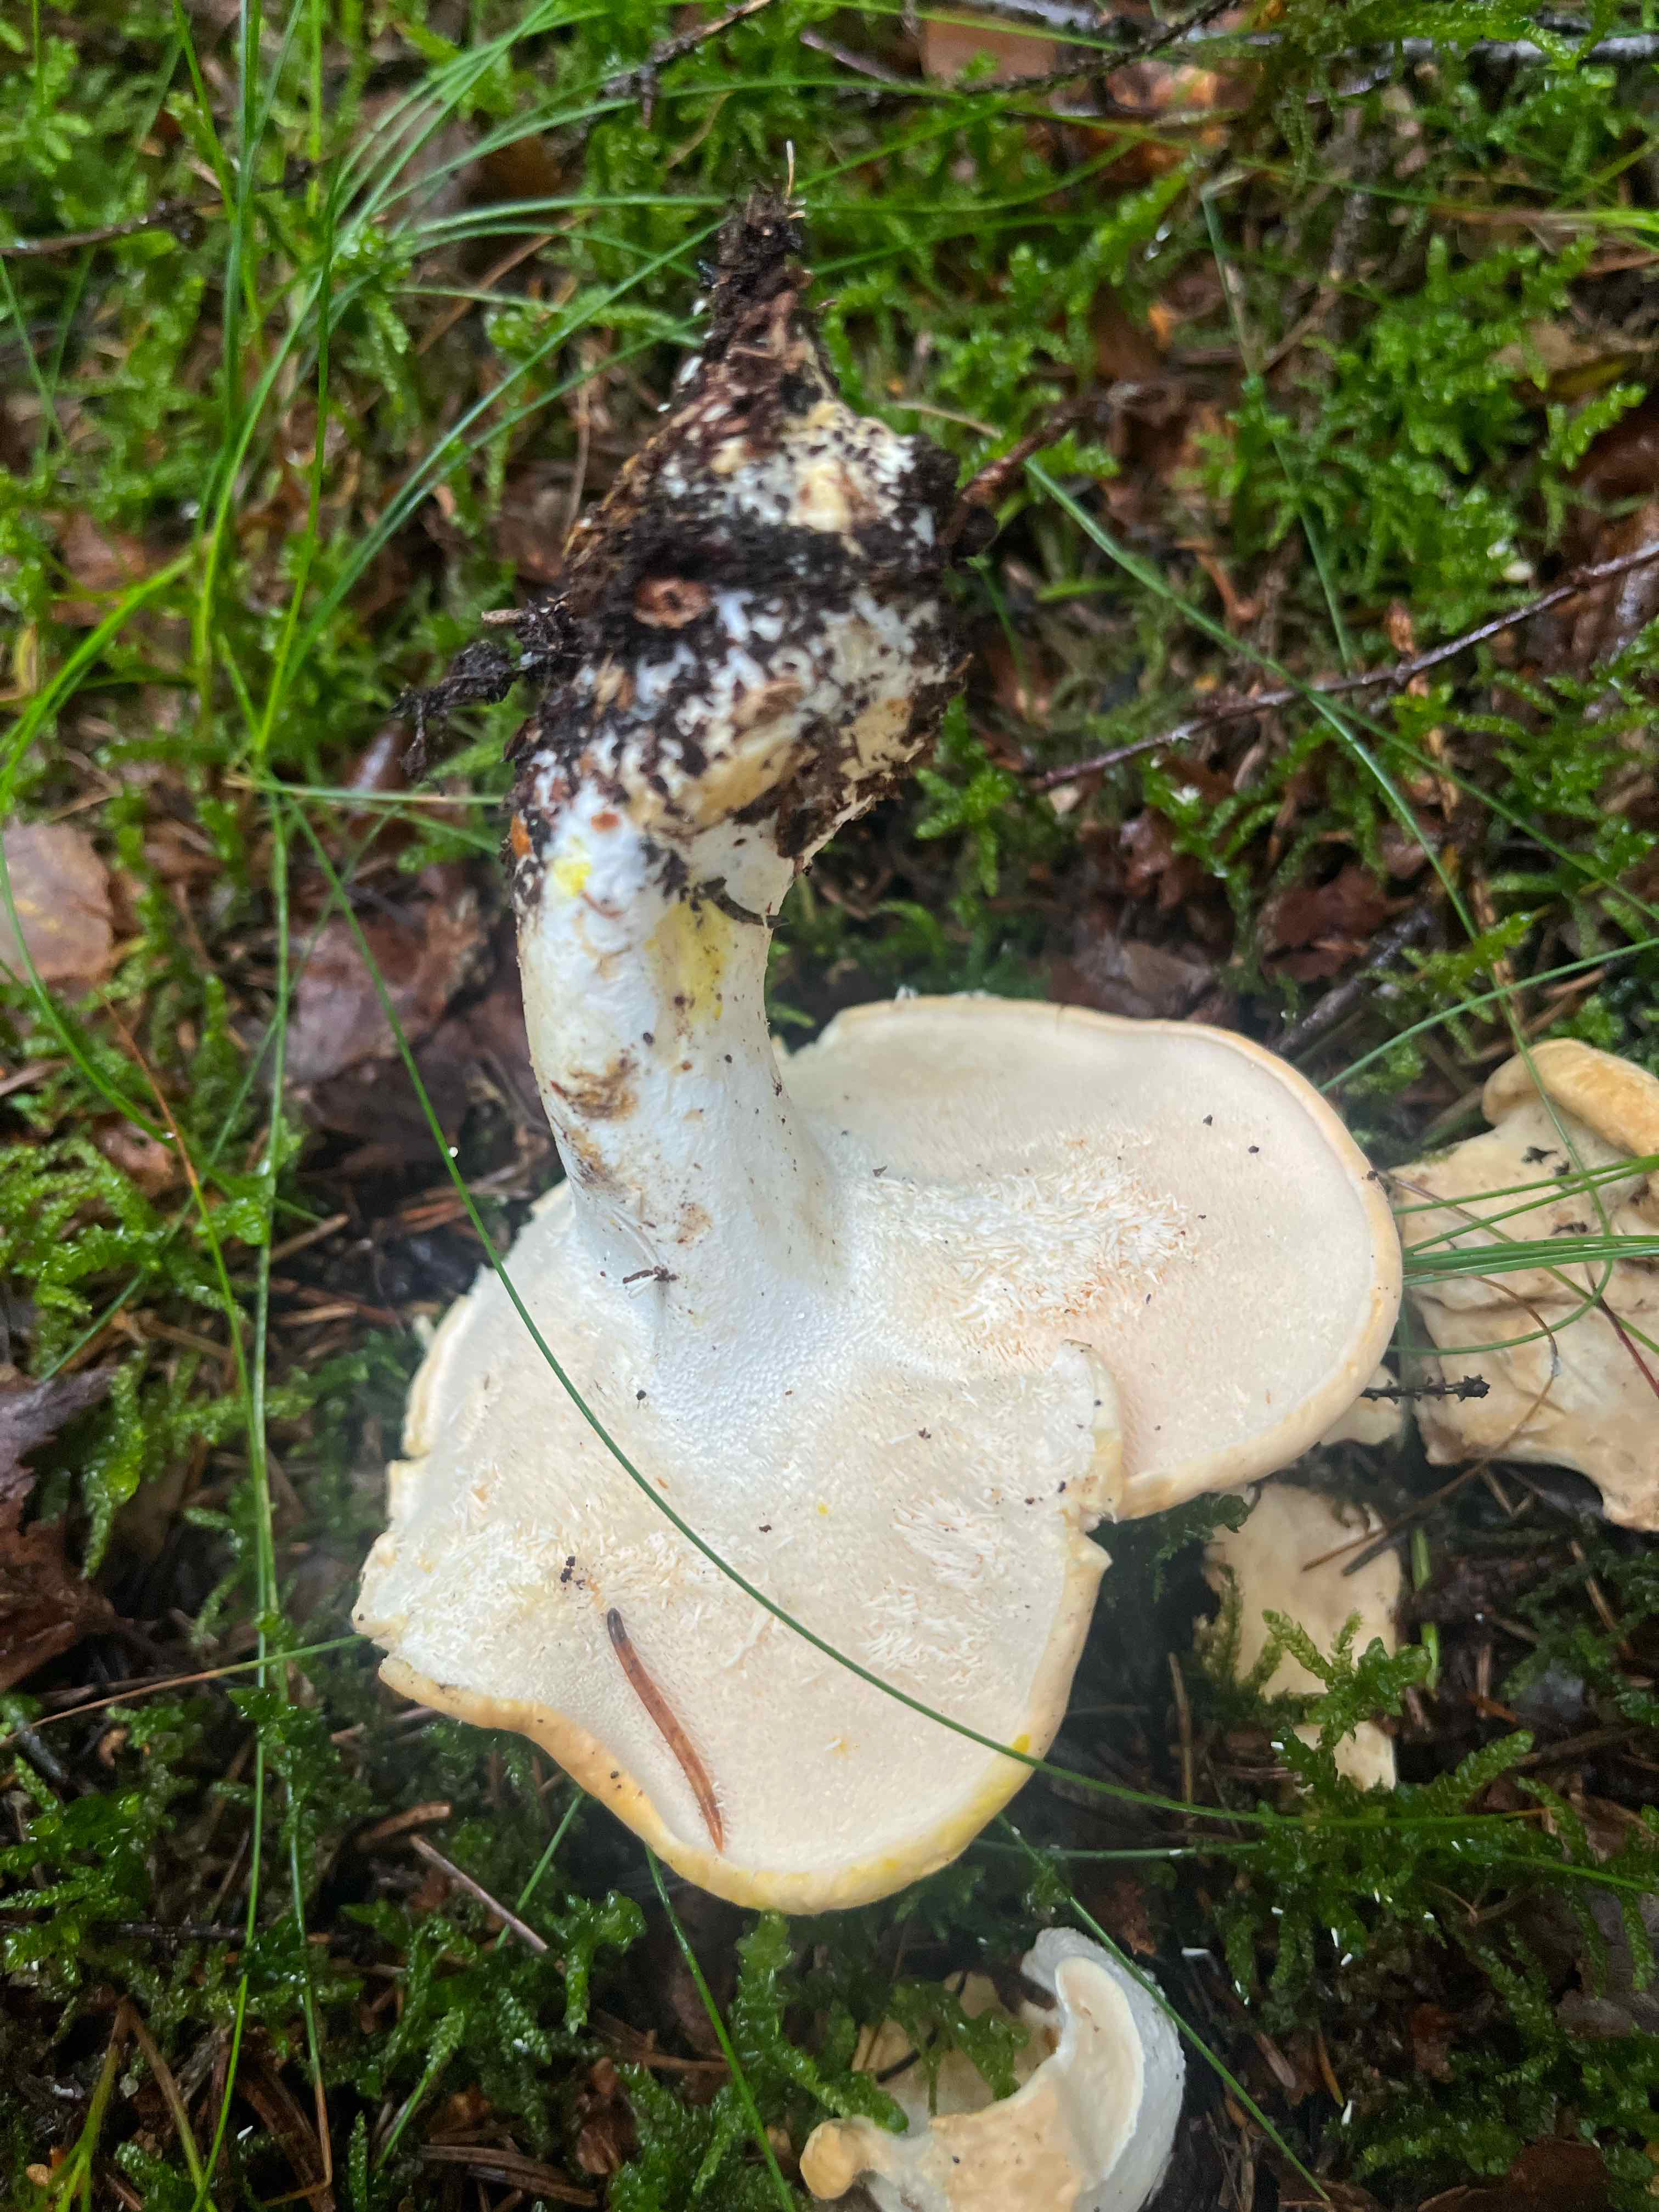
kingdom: Fungi
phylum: Basidiomycota
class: Agaricomycetes
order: Cantharellales
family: Hydnaceae
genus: Hydnum
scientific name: Hydnum repandum
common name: almindelig pigsvamp
